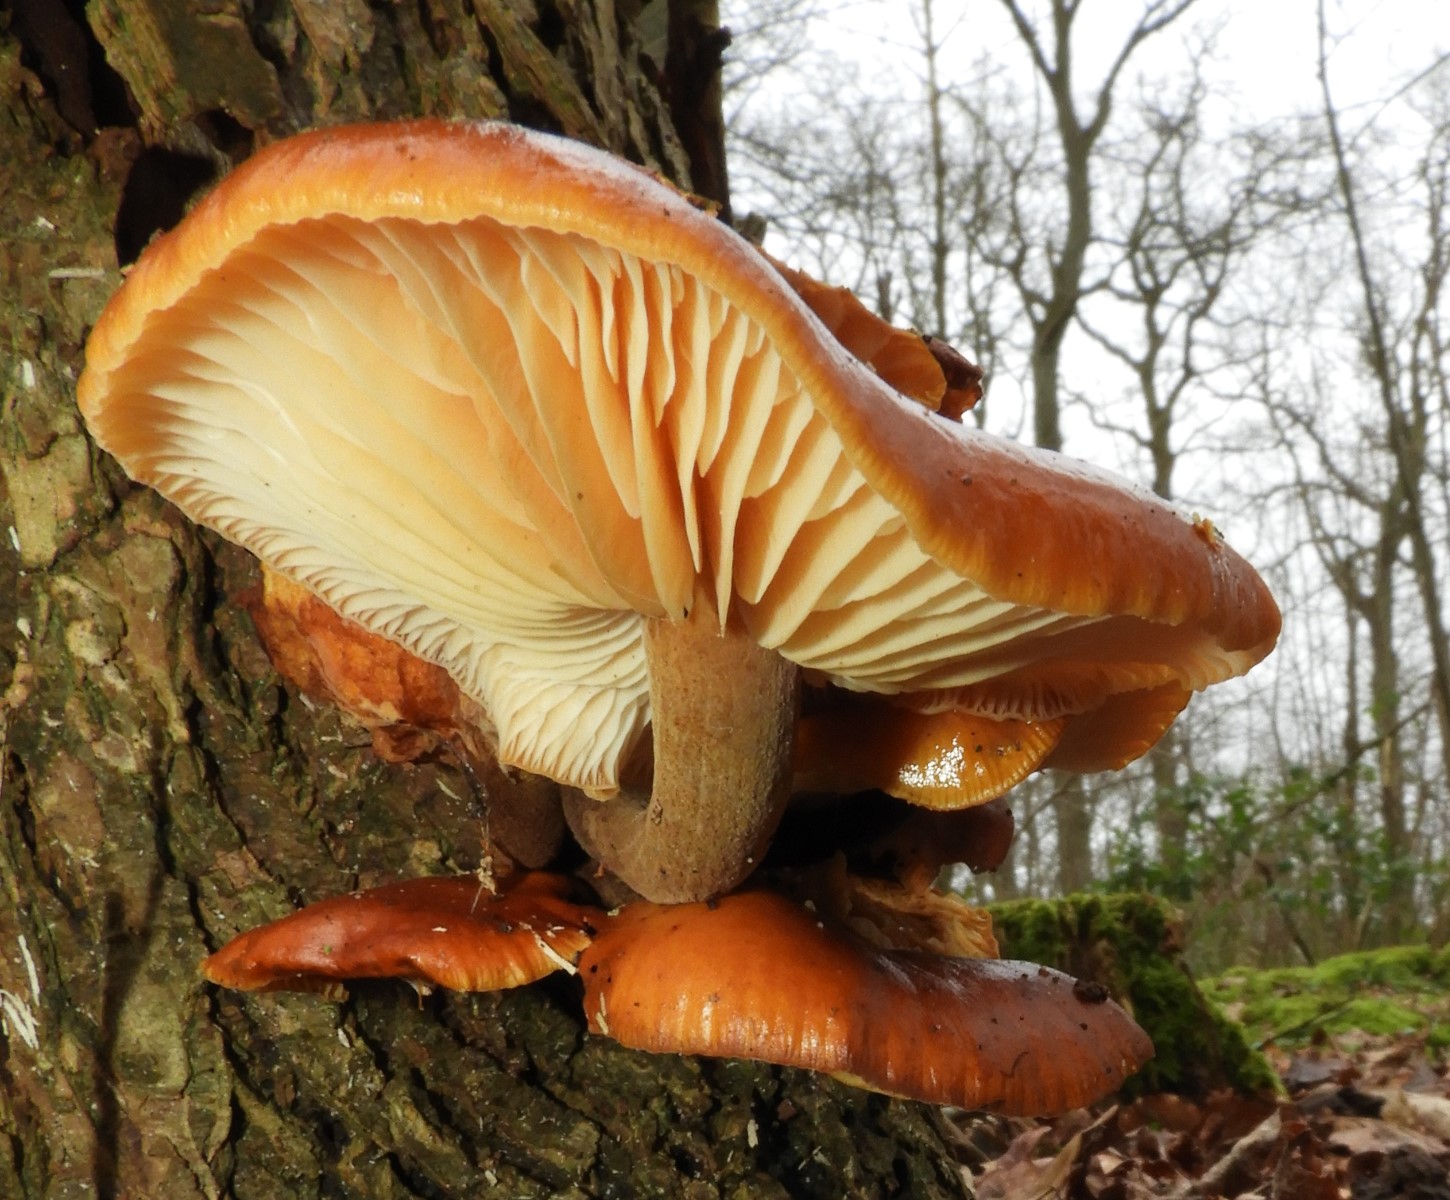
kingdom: Fungi
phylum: Basidiomycota
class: Agaricomycetes
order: Agaricales
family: Physalacriaceae
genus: Flammulina
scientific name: Flammulina velutipes
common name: gul fløjlsfod
